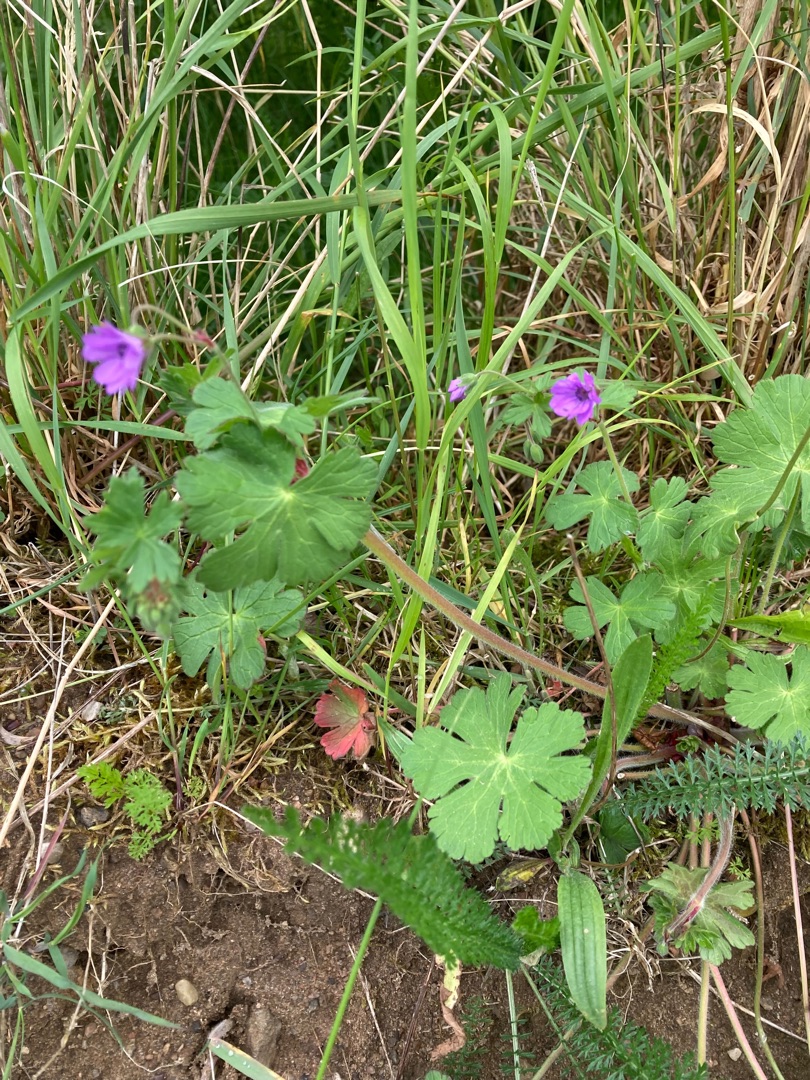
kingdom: Plantae
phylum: Tracheophyta
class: Magnoliopsida
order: Geraniales
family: Geraniaceae
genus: Geranium
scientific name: Geranium pyrenaicum
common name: Pyrenæisk storkenæb
